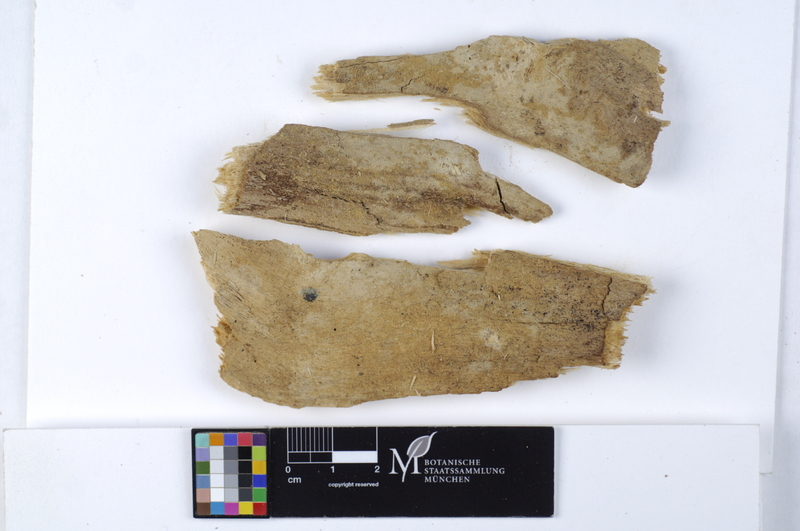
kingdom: Plantae
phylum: Tracheophyta
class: Magnoliopsida
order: Malpighiales
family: Salicaceae
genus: Salix
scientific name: Salix alba
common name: White willow
